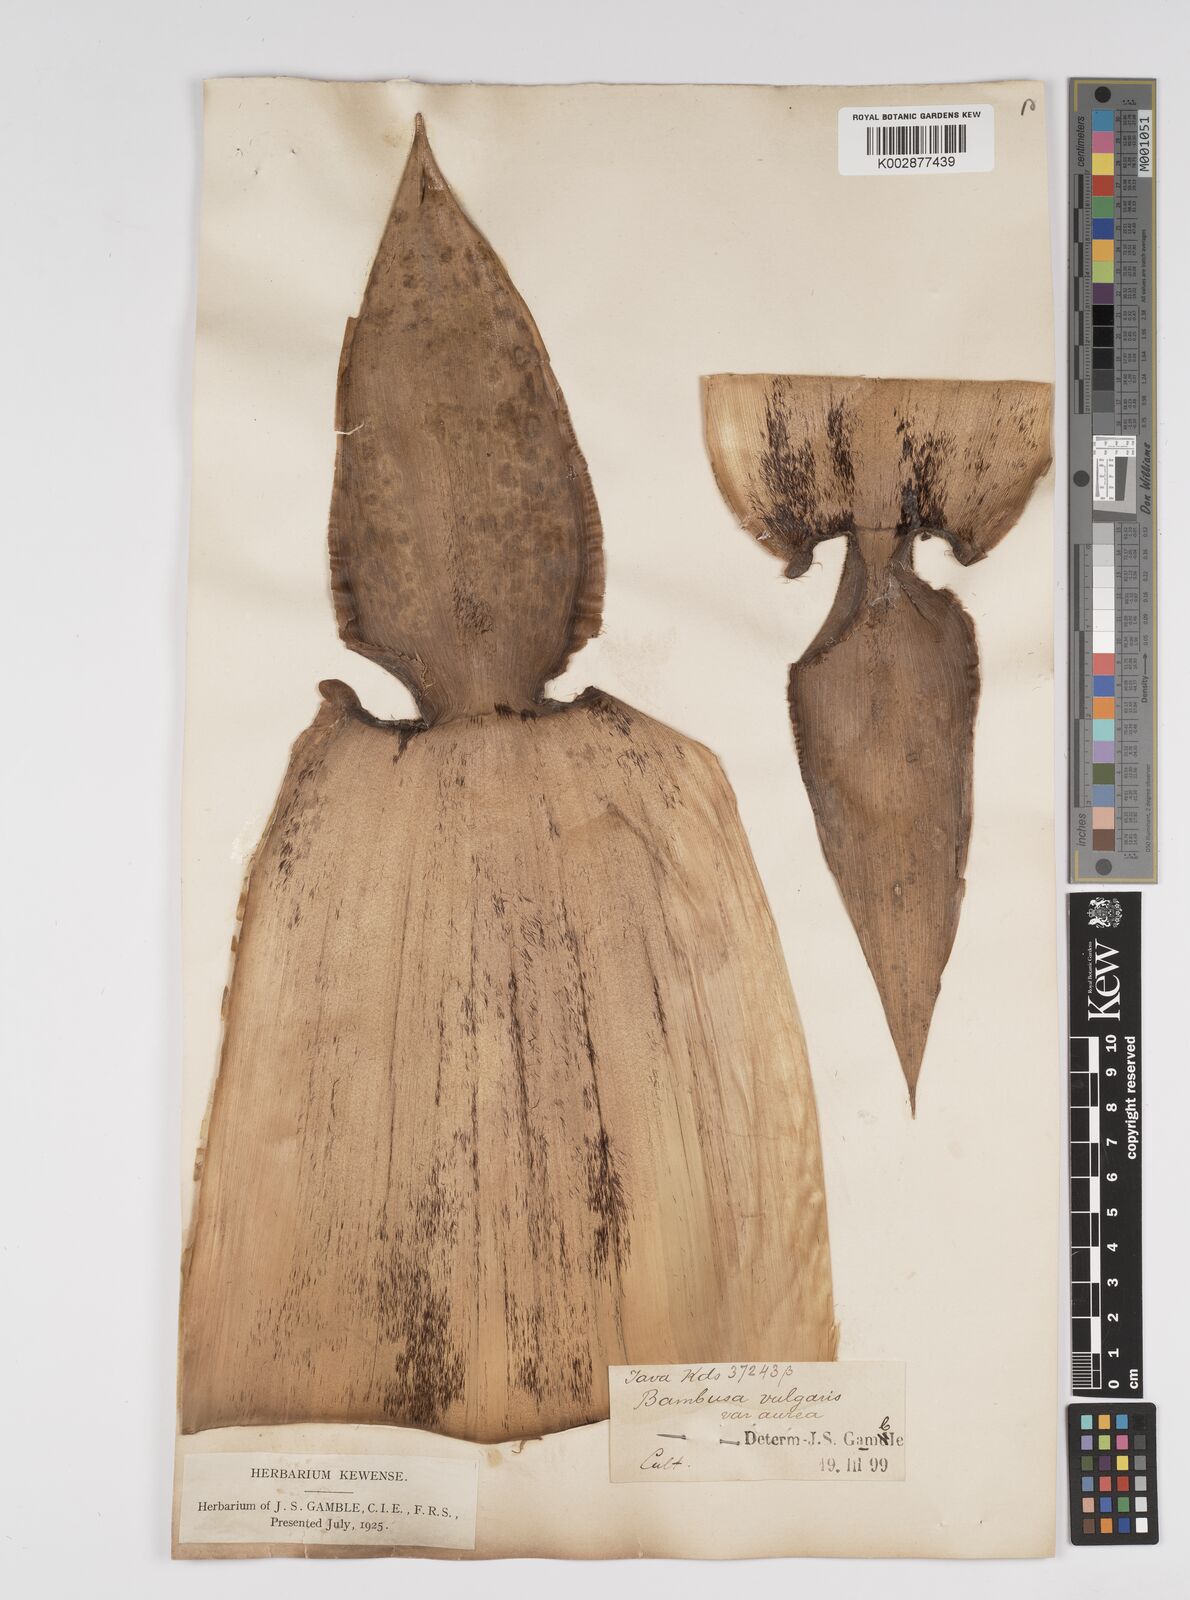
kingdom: Plantae
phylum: Tracheophyta
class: Liliopsida
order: Poales
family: Poaceae
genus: Bambusa
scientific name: Bambusa vulgaris
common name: Common bamboo
